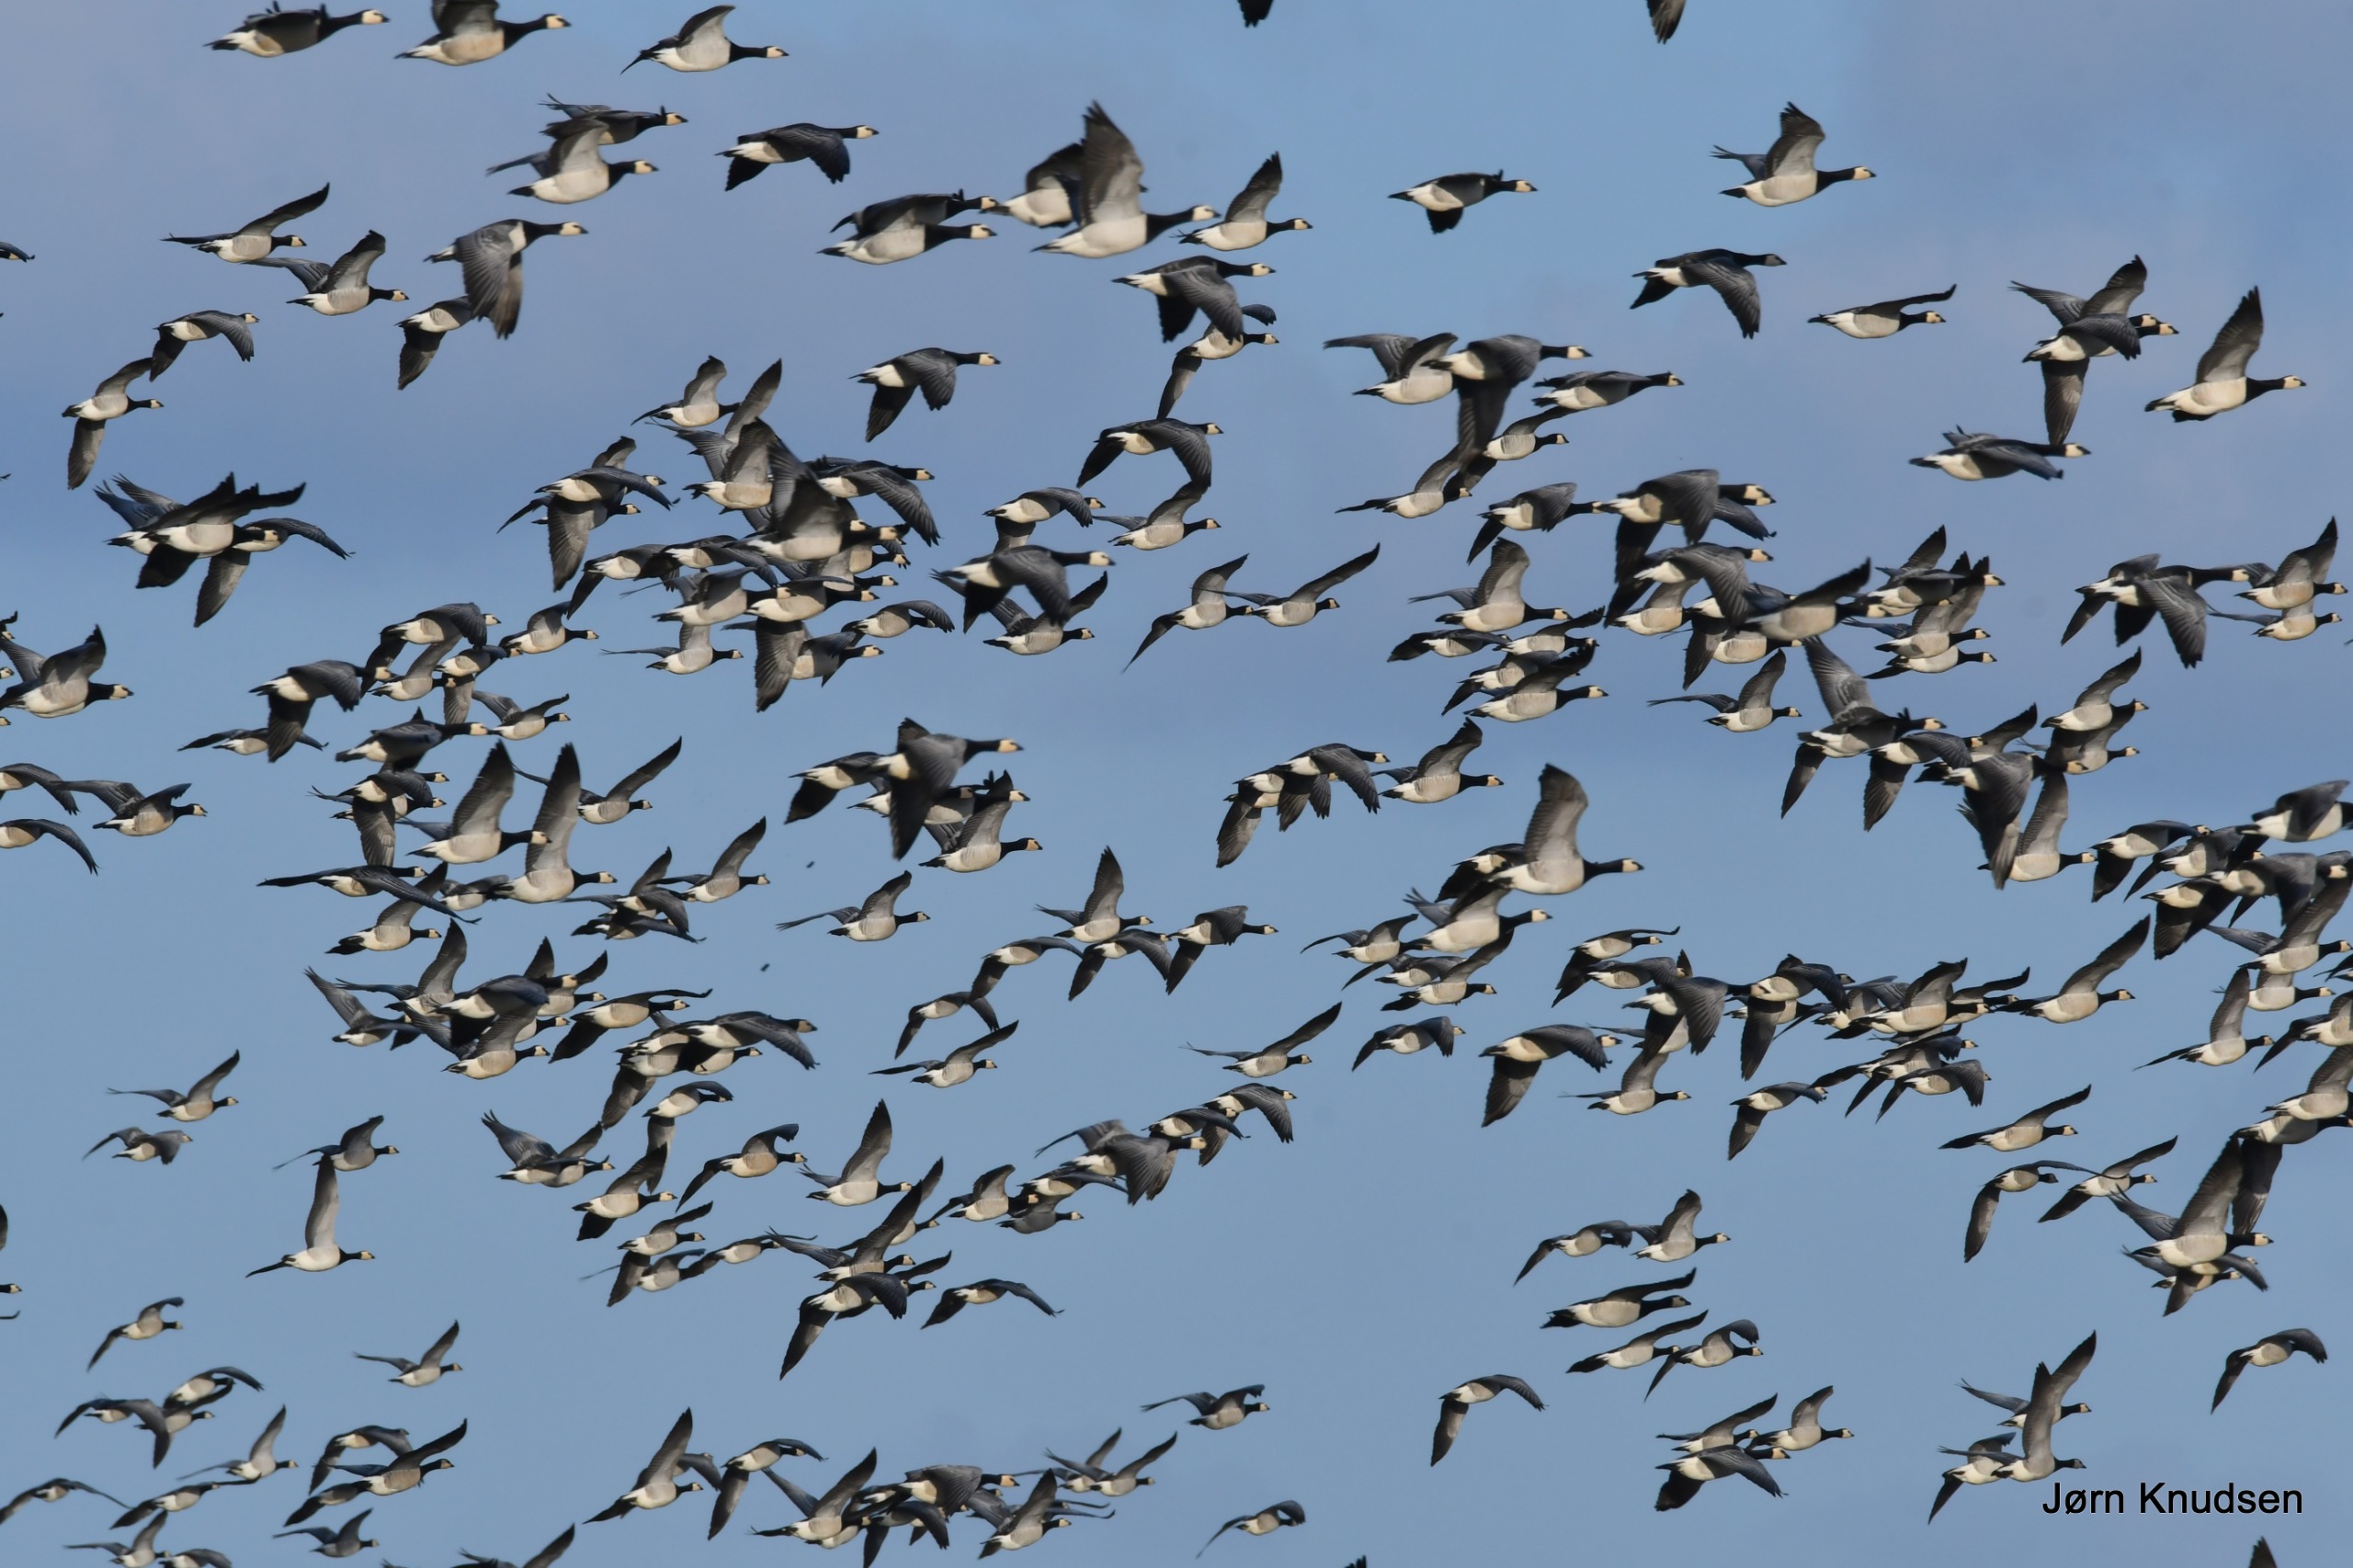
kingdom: Animalia
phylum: Chordata
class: Aves
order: Anseriformes
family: Anatidae
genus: Branta
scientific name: Branta leucopsis
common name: Bramgås
